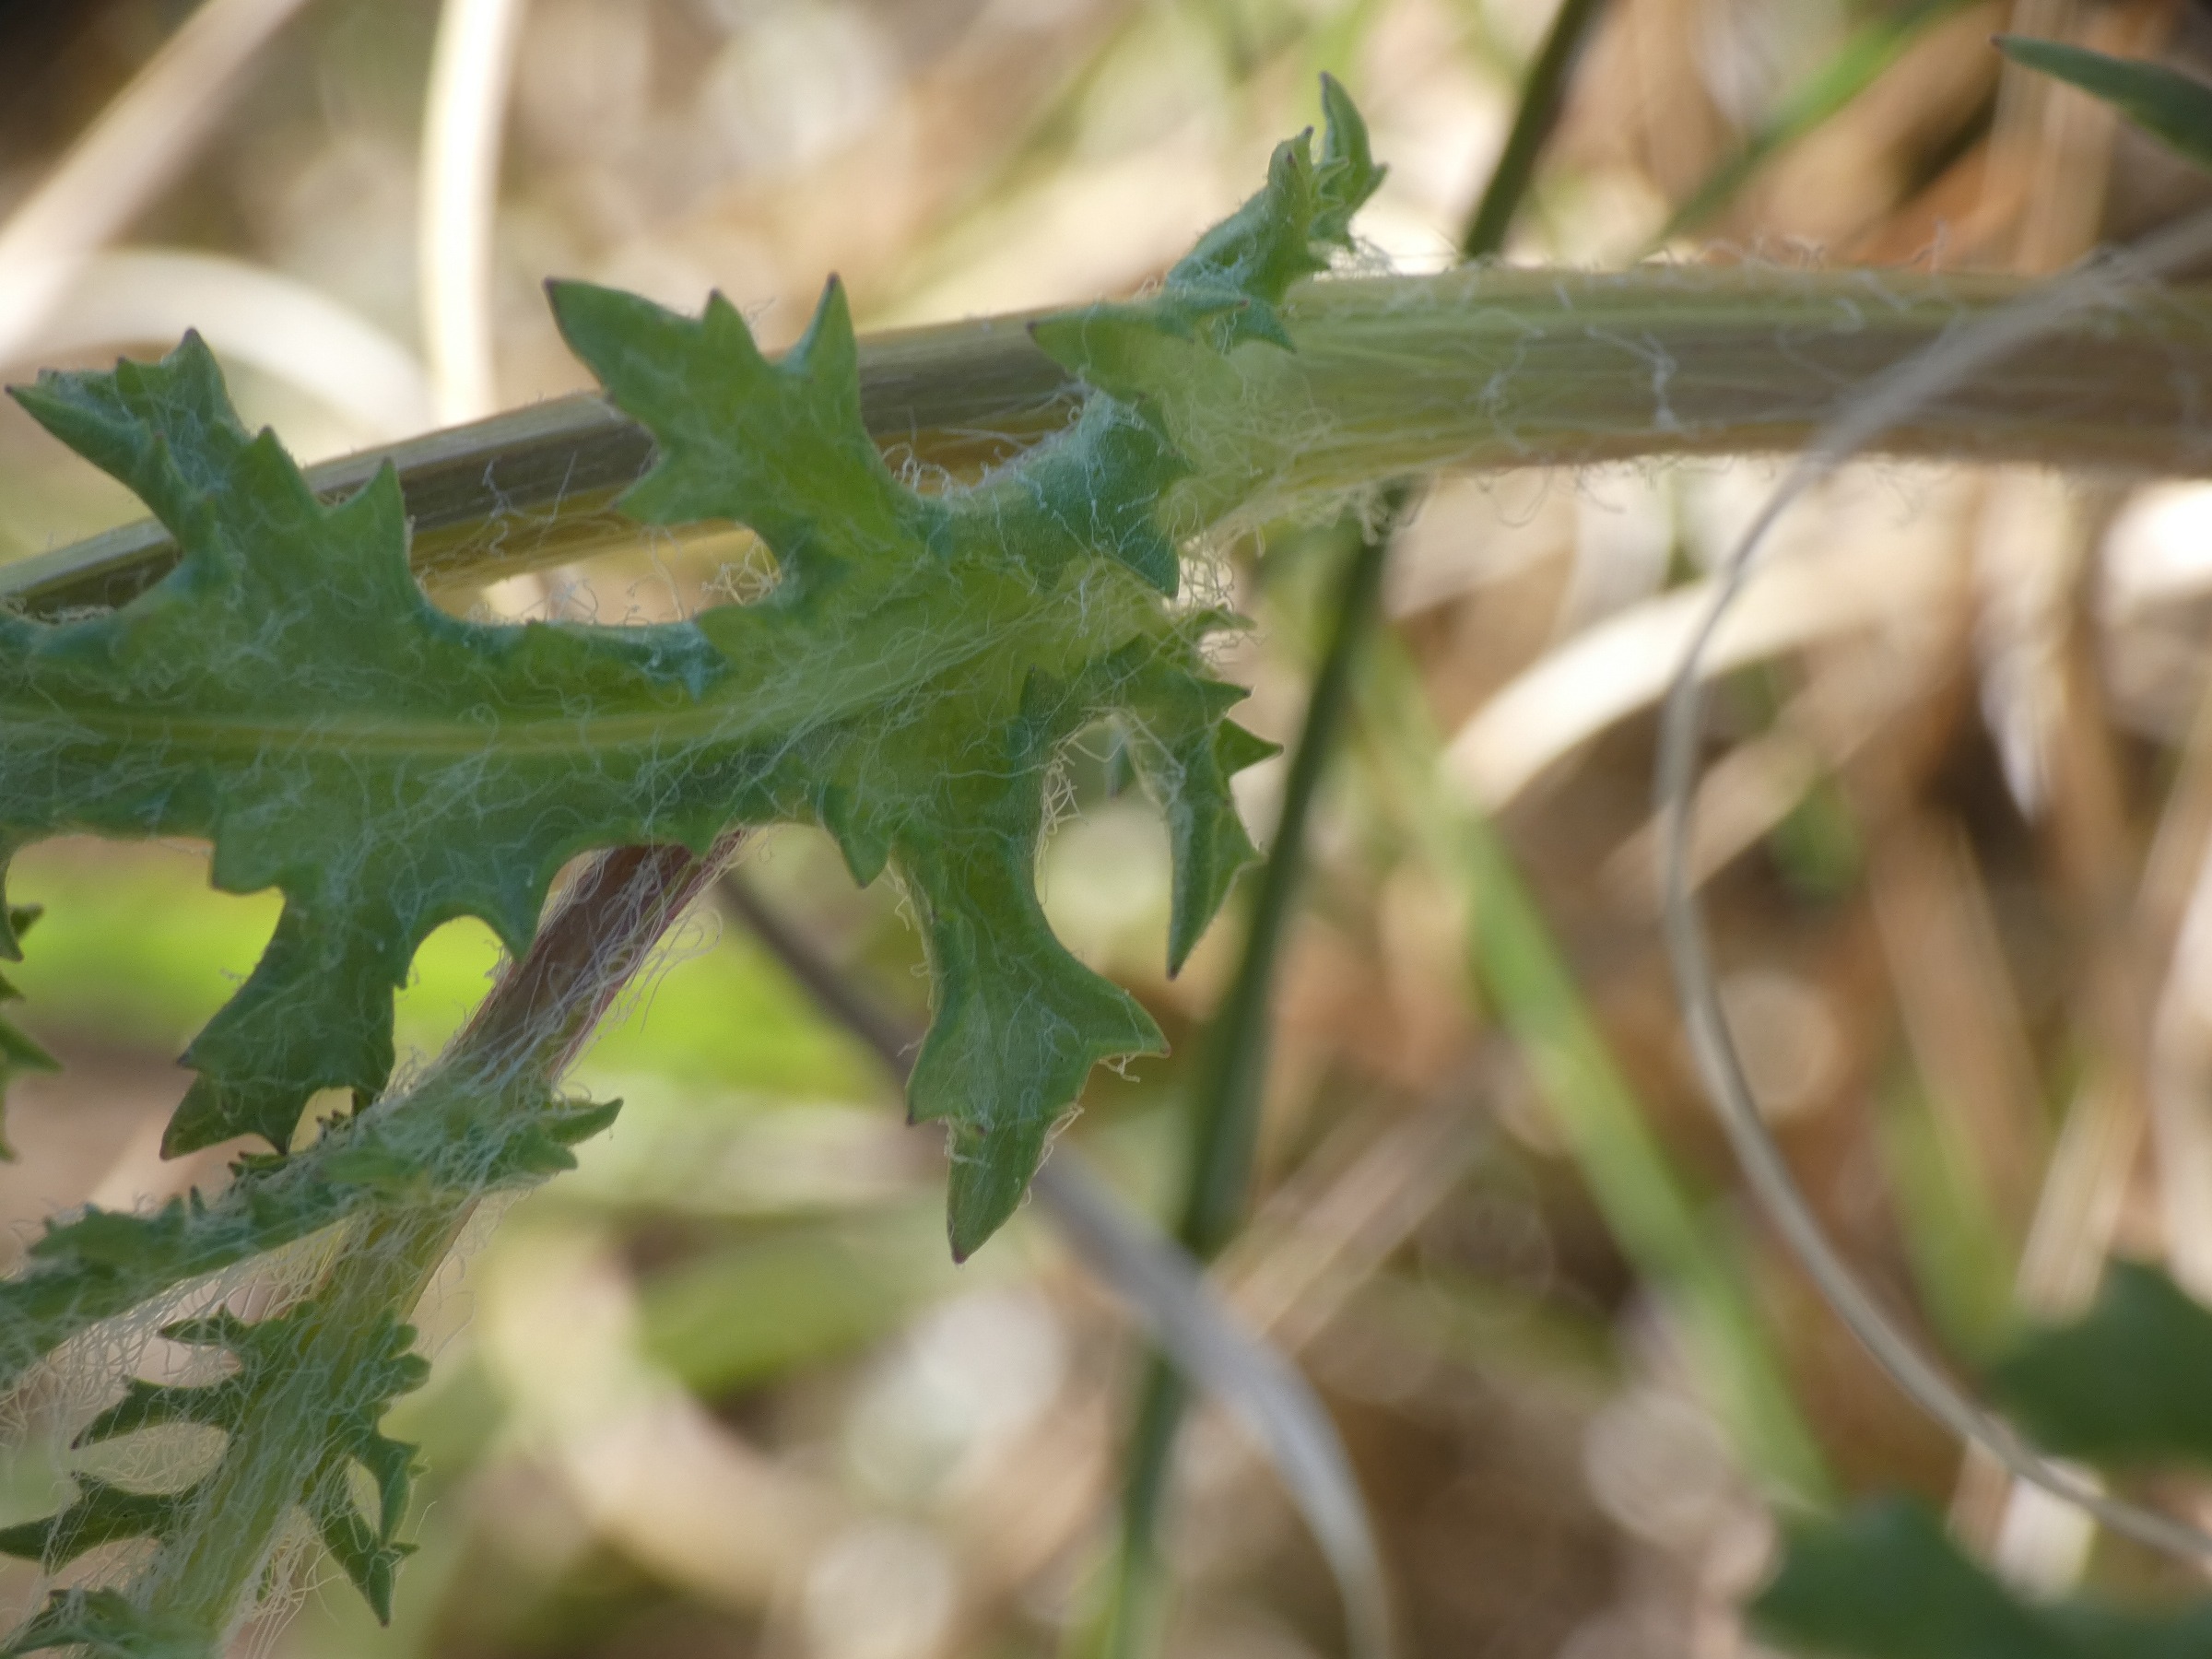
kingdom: Plantae
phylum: Tracheophyta
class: Magnoliopsida
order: Asterales
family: Asteraceae
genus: Senecio
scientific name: Senecio leucanthemifolius
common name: Vår-brandbæger
